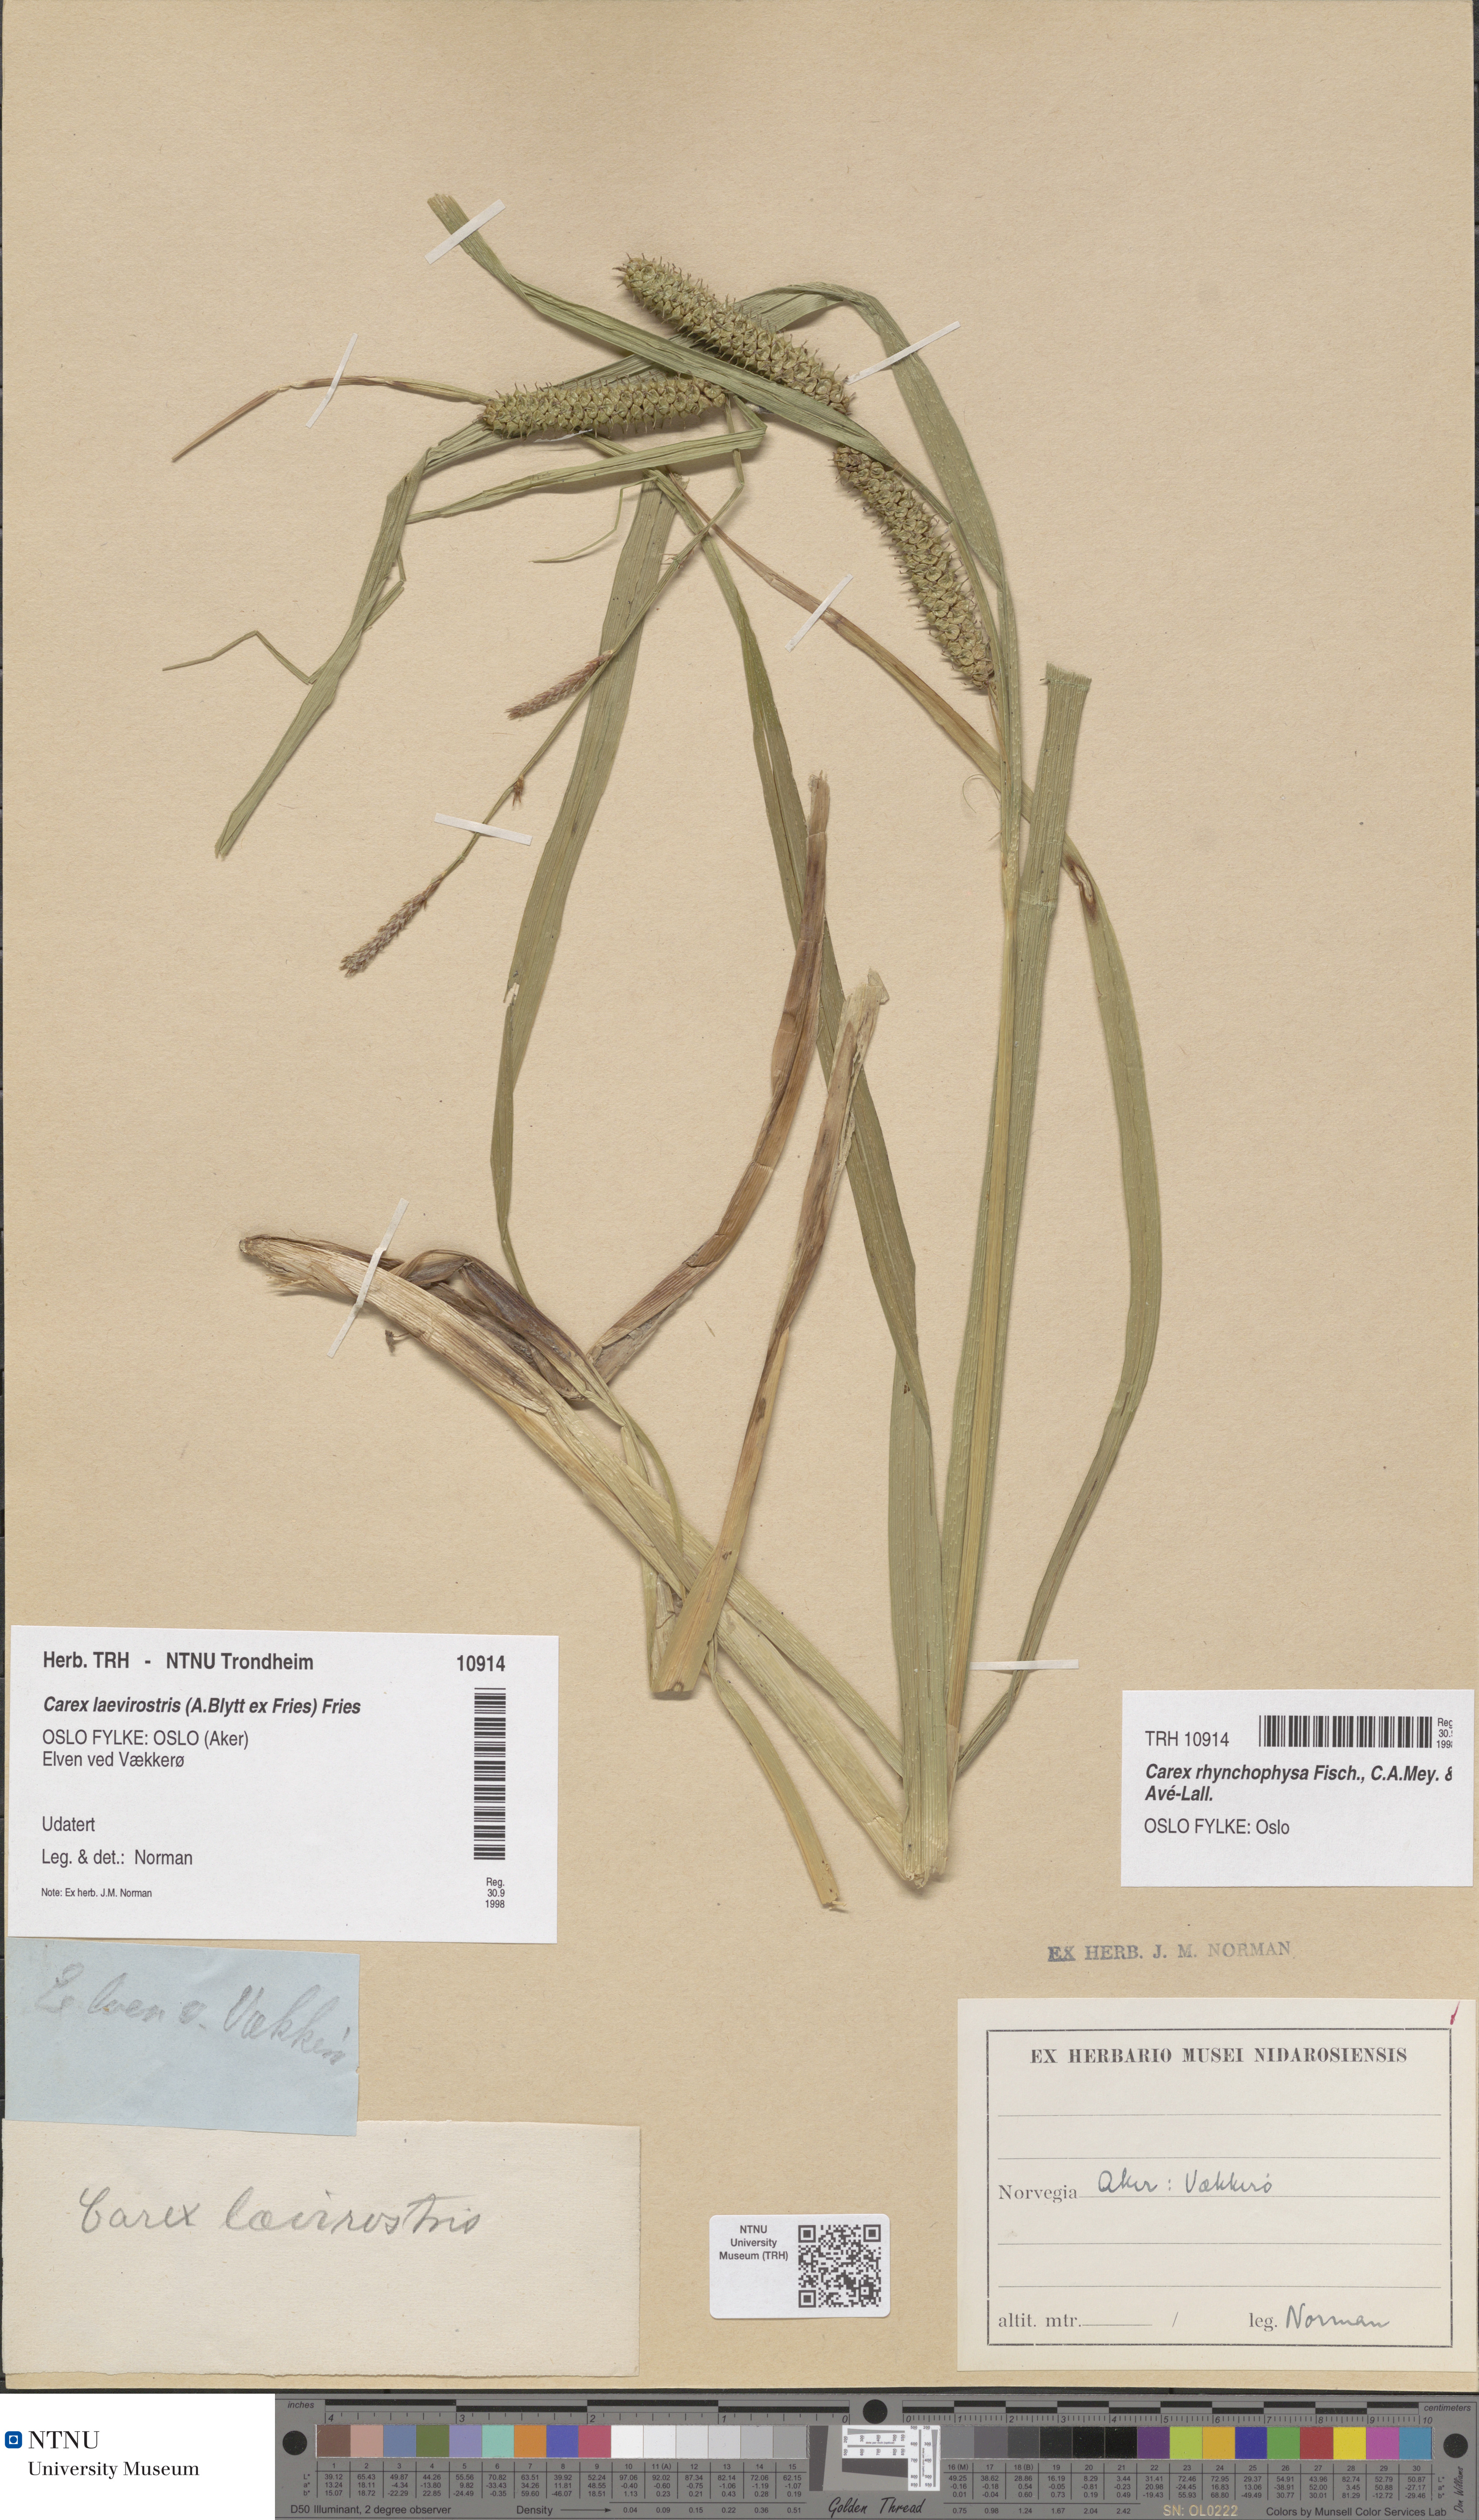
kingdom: Plantae
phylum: Tracheophyta
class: Liliopsida
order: Poales
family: Cyperaceae
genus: Carex
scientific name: Carex utriculata
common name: Beaked sedge
